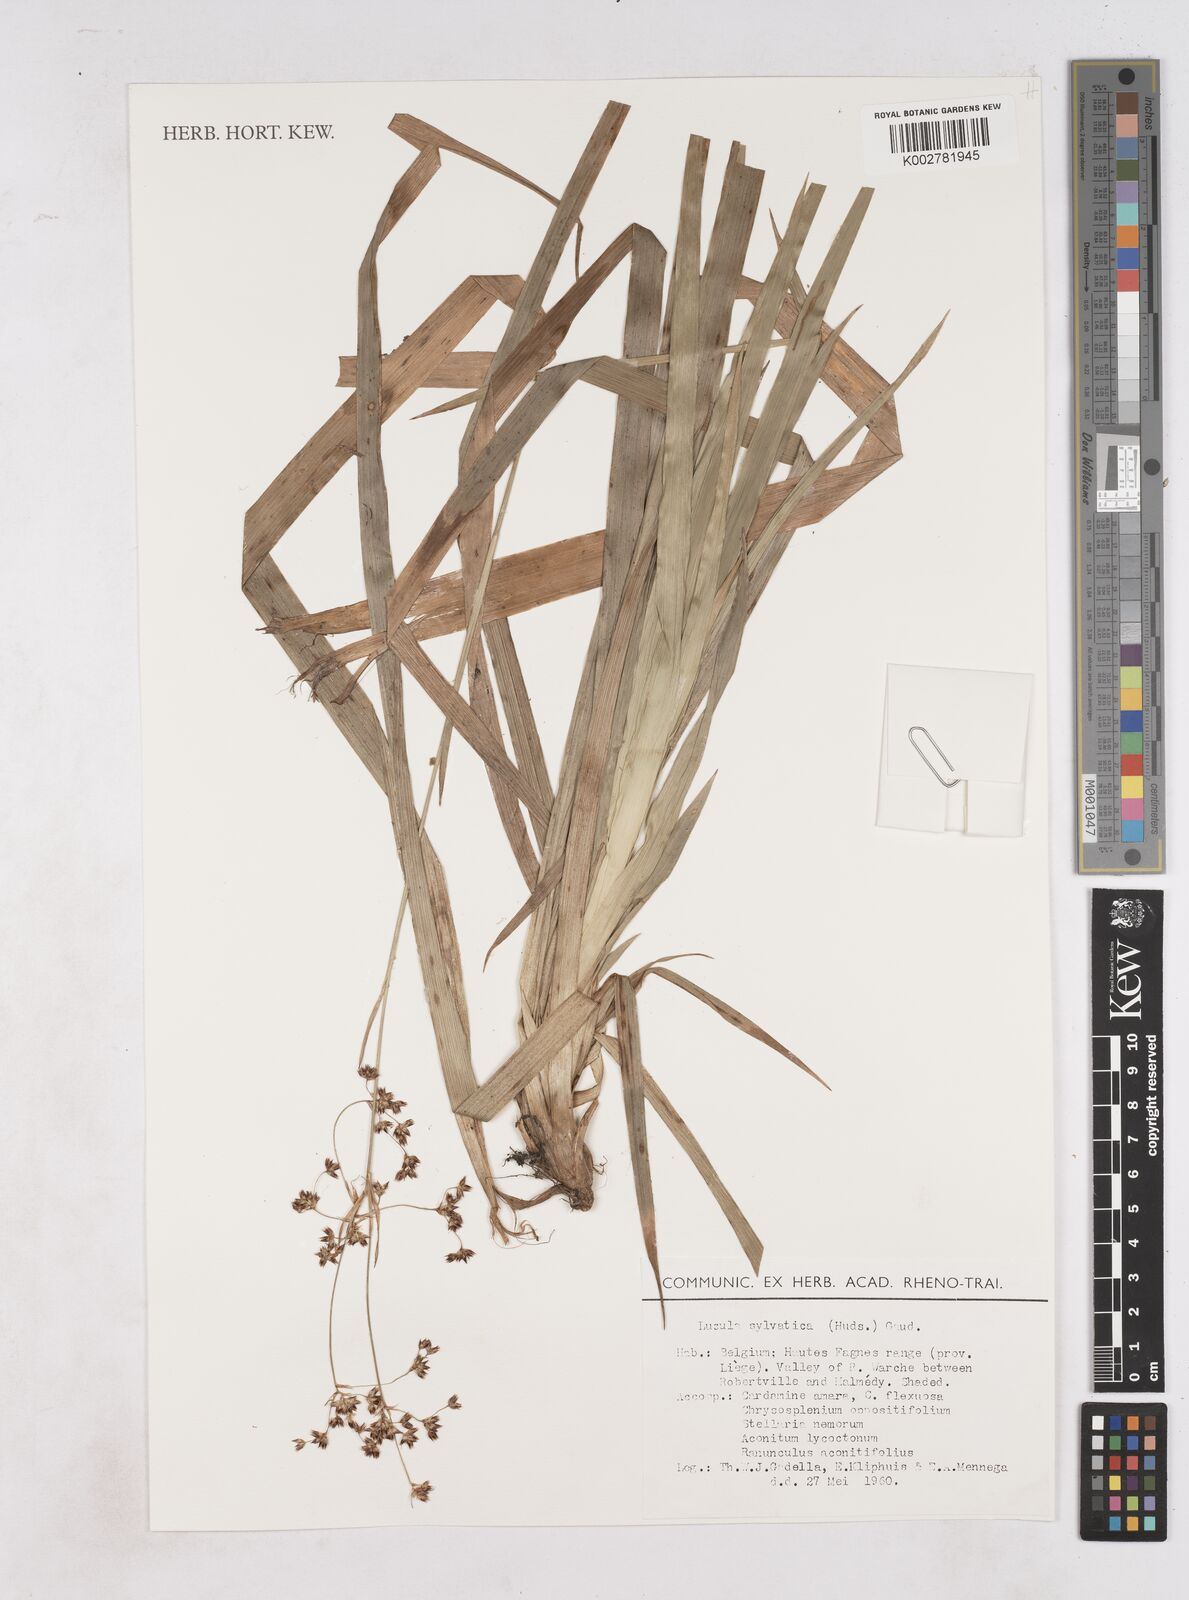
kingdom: Plantae
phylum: Tracheophyta
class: Liliopsida
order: Poales
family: Juncaceae
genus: Luzula
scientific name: Luzula sylvatica
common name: Great wood-rush
